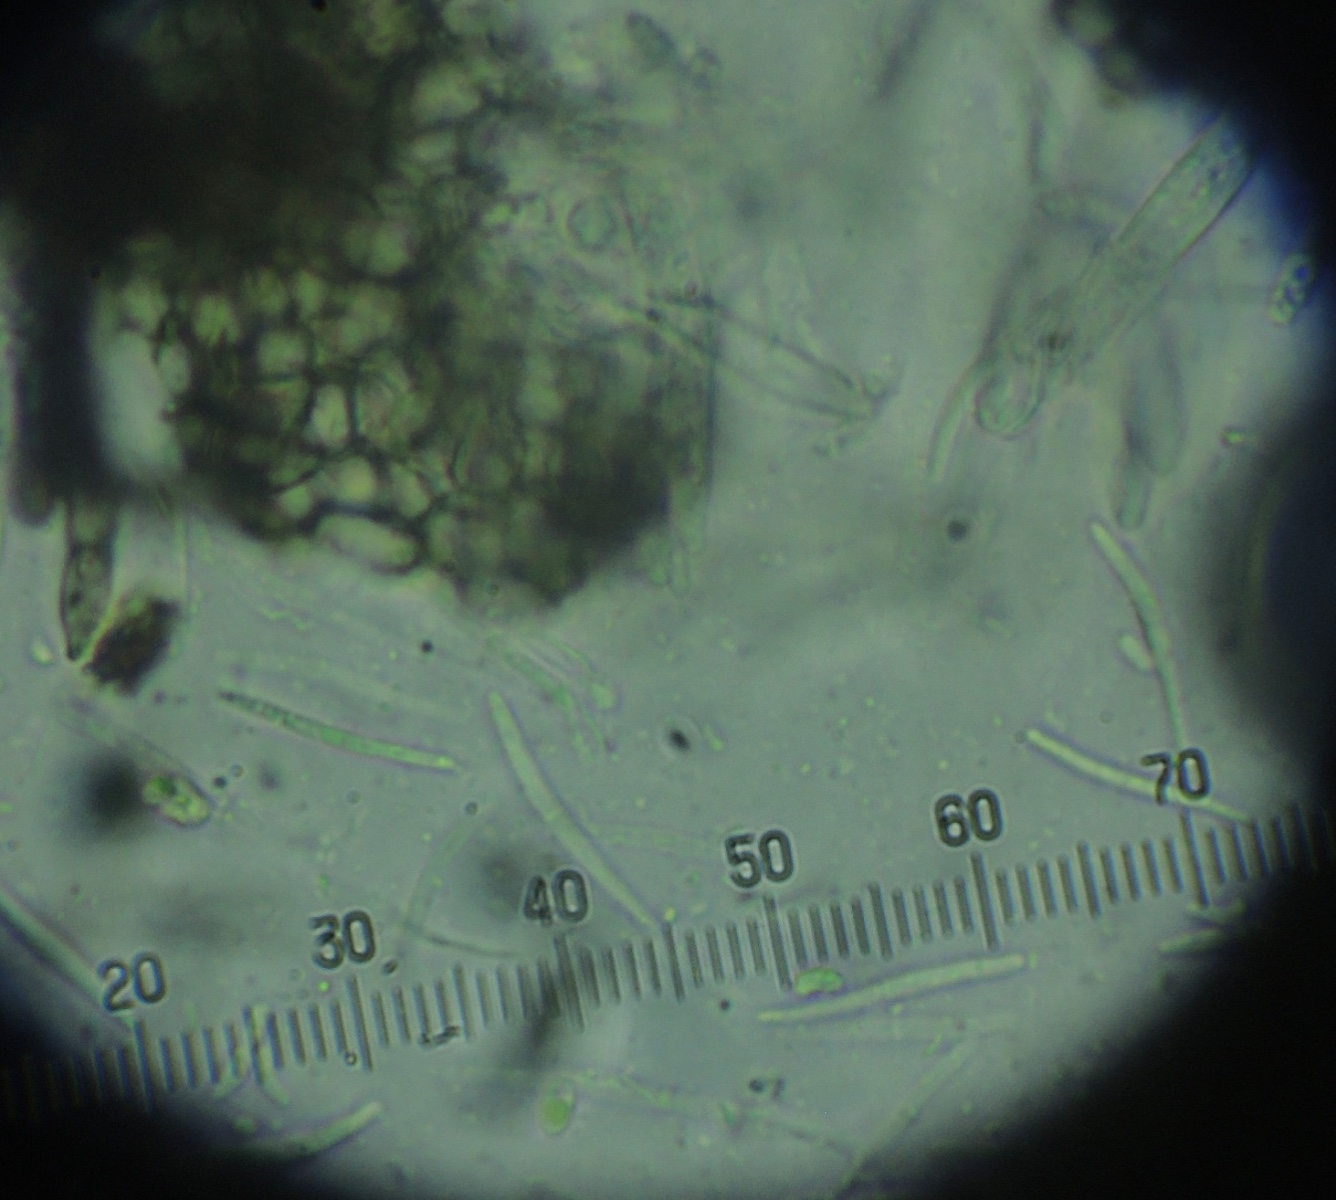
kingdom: Fungi
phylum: Ascomycota
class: Leotiomycetes
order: Helotiales
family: Ploettnerulaceae
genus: Pyrenopeziza
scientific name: Pyrenopeziza arctii
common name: burre-kerneskive
